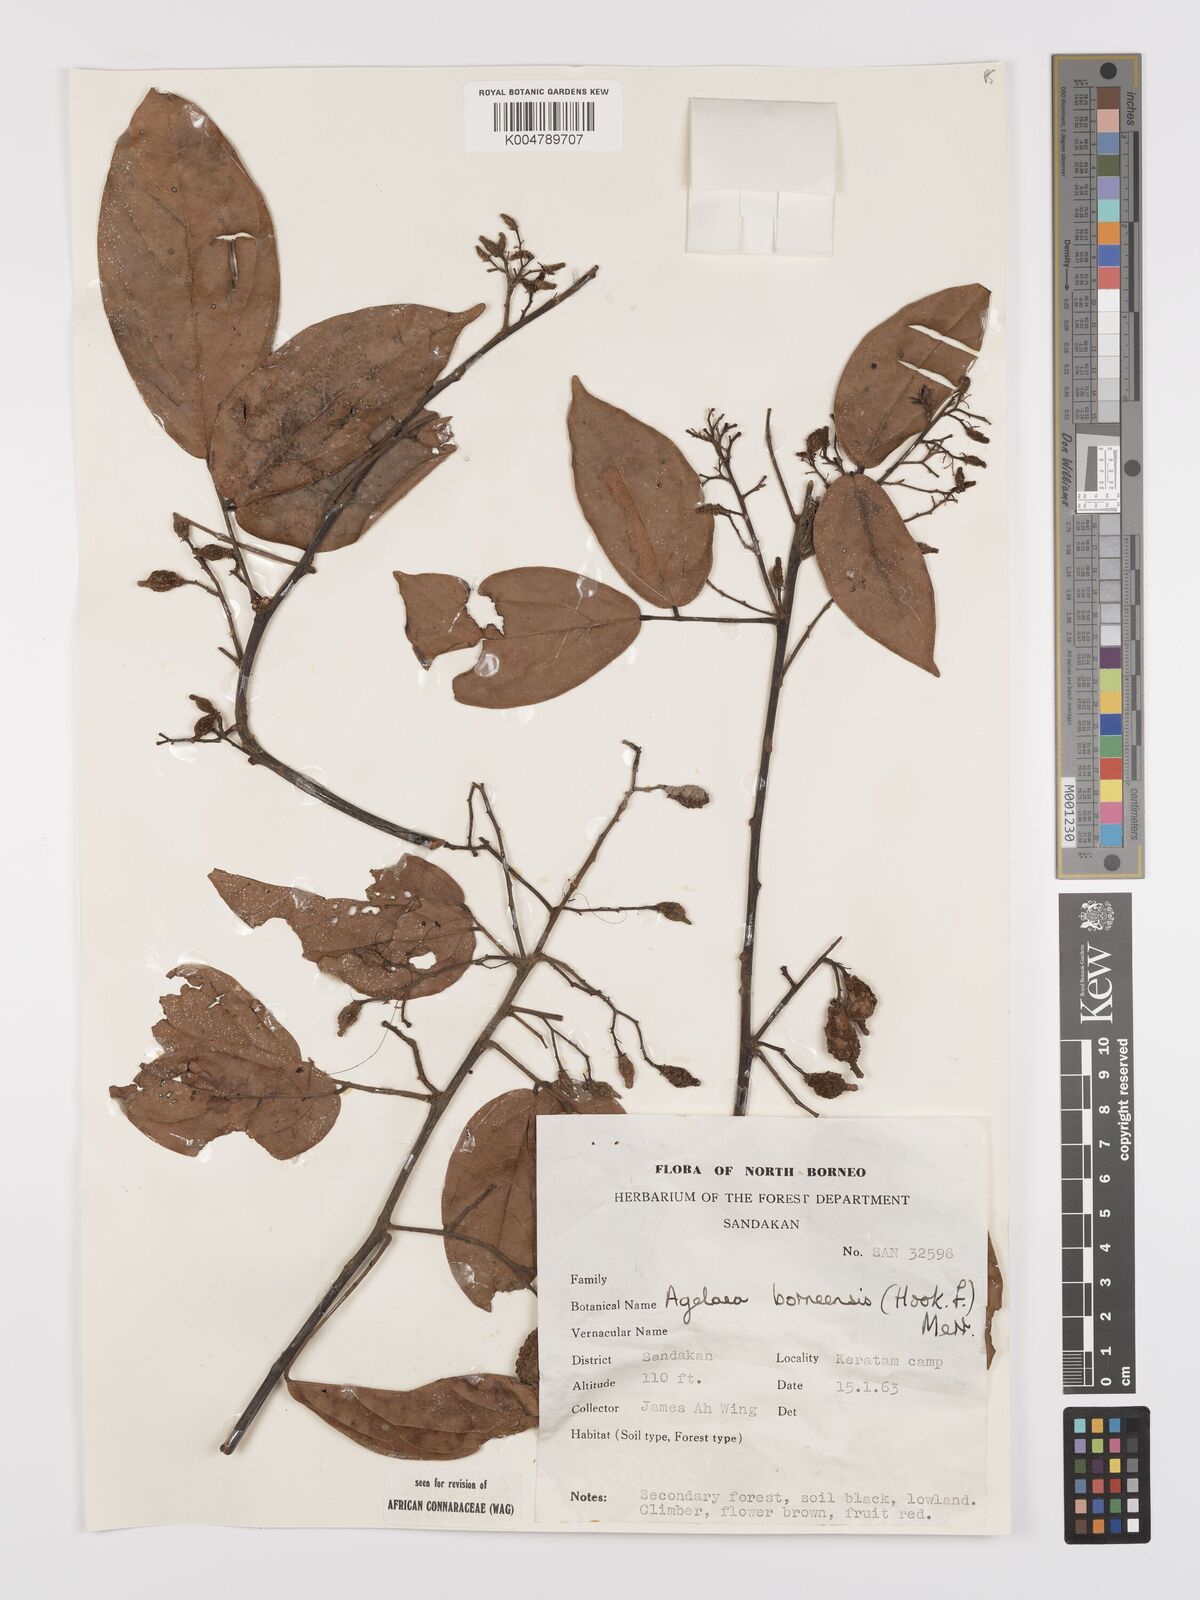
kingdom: Plantae
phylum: Tracheophyta
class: Magnoliopsida
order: Oxalidales
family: Connaraceae
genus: Agelaea
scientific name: Agelaea borneensis
